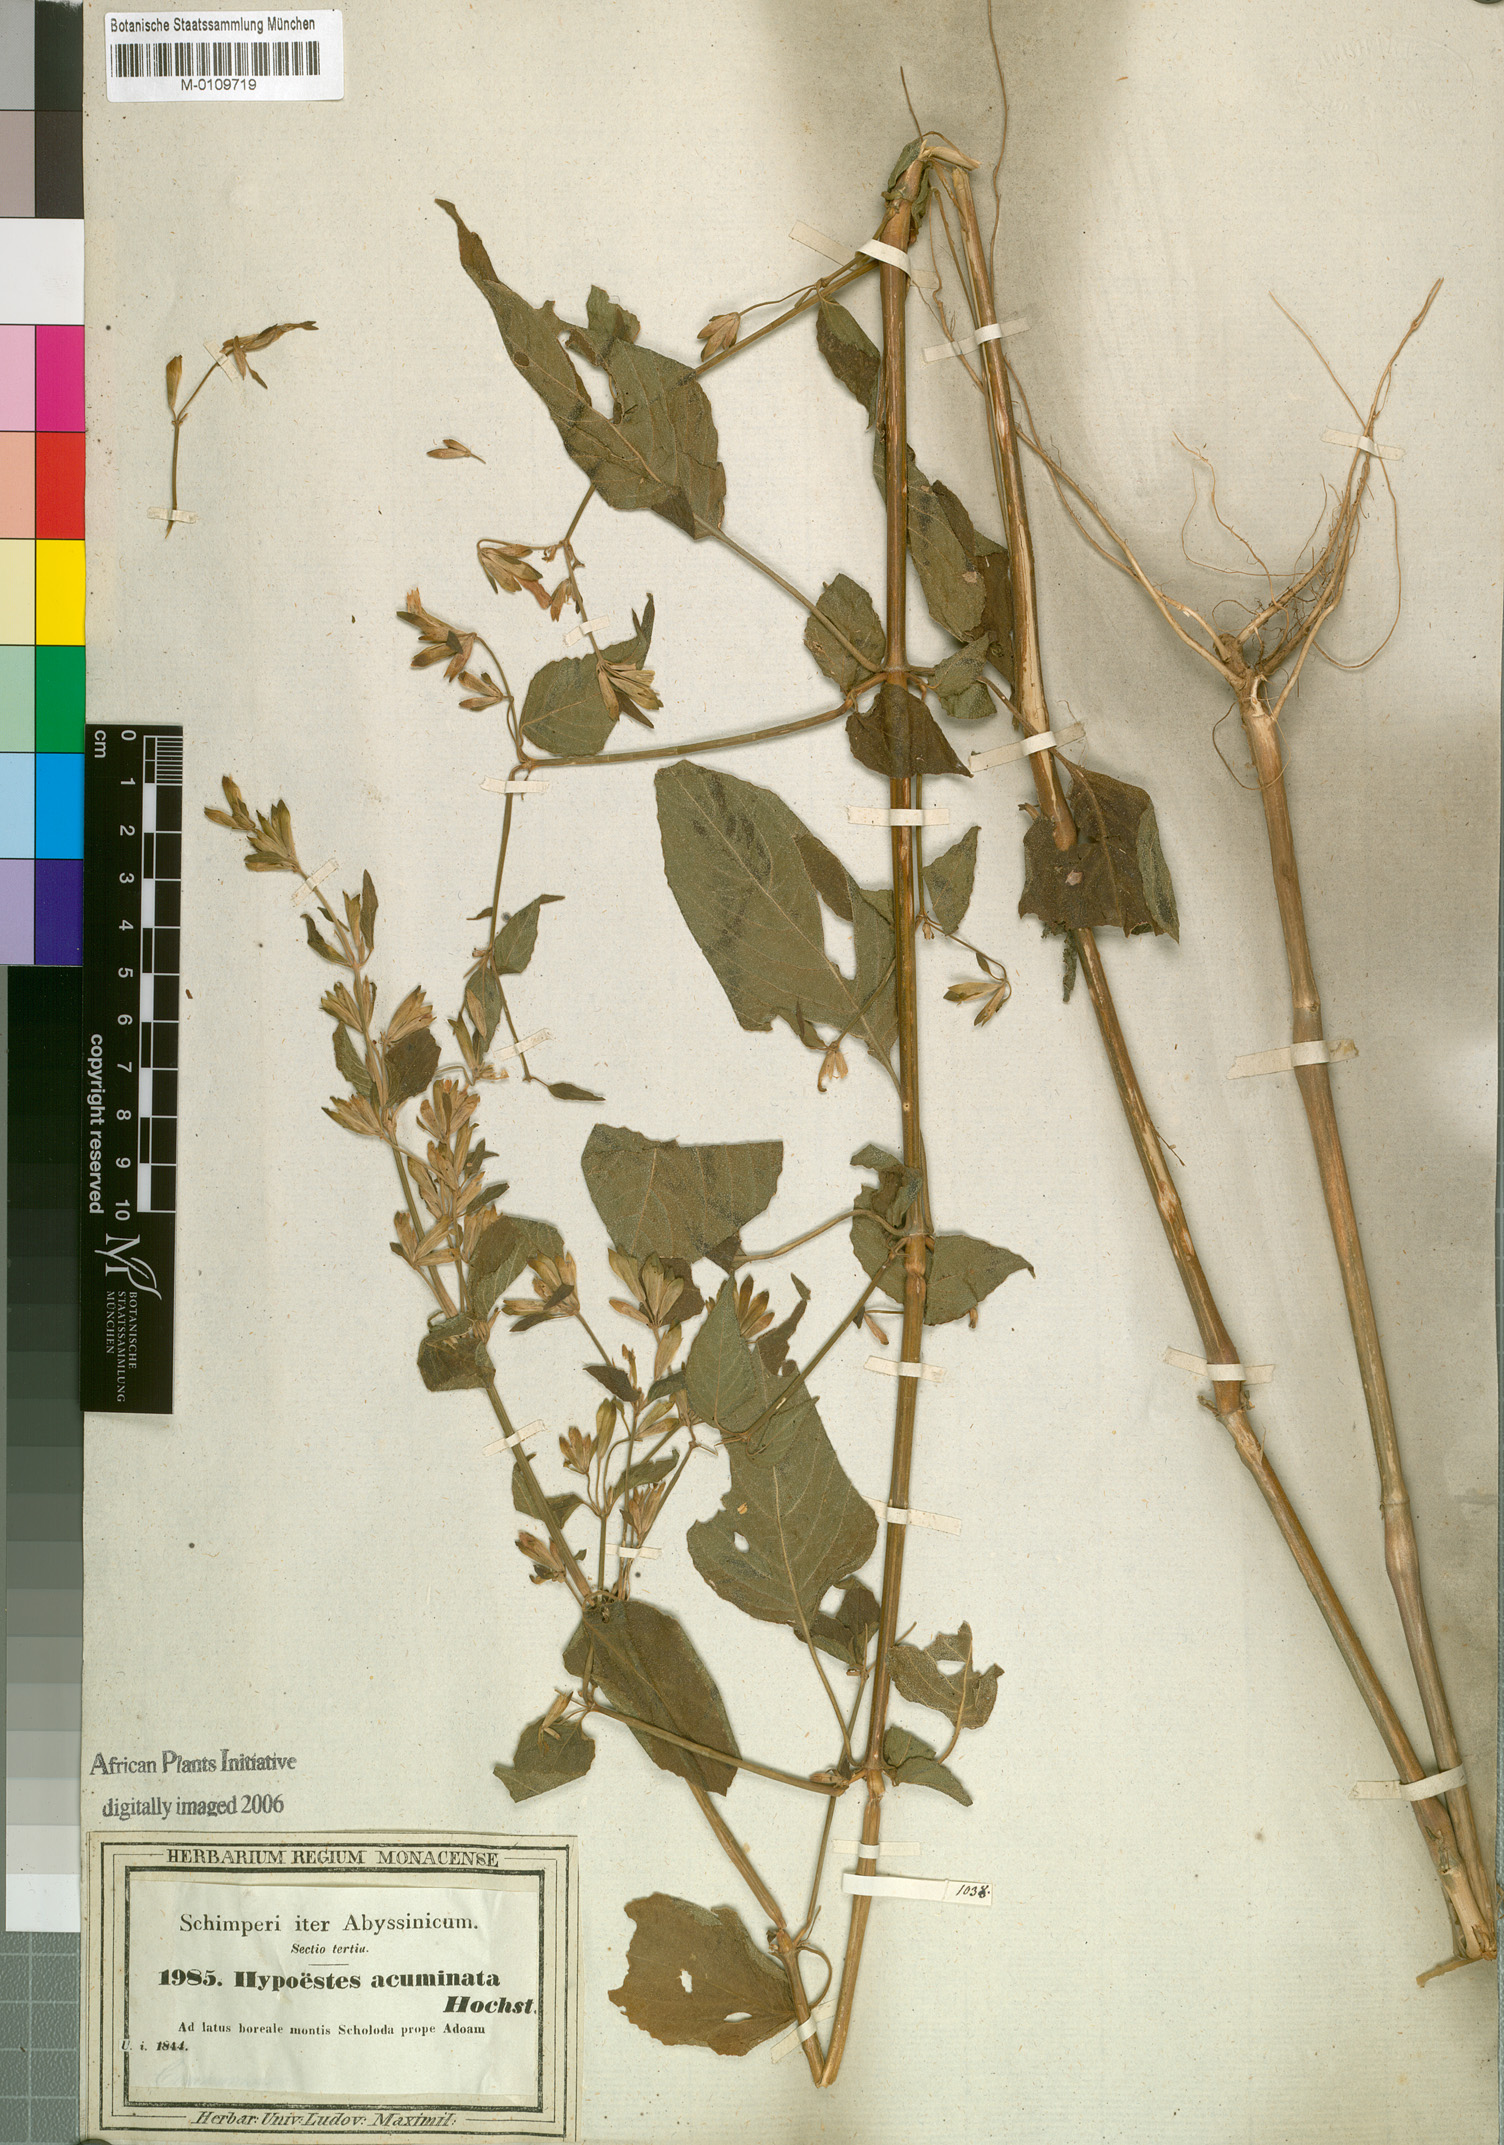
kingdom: Plantae
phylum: Tracheophyta
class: Magnoliopsida
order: Lamiales
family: Acanthaceae
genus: Hypoestes
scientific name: Hypoestes triflora
